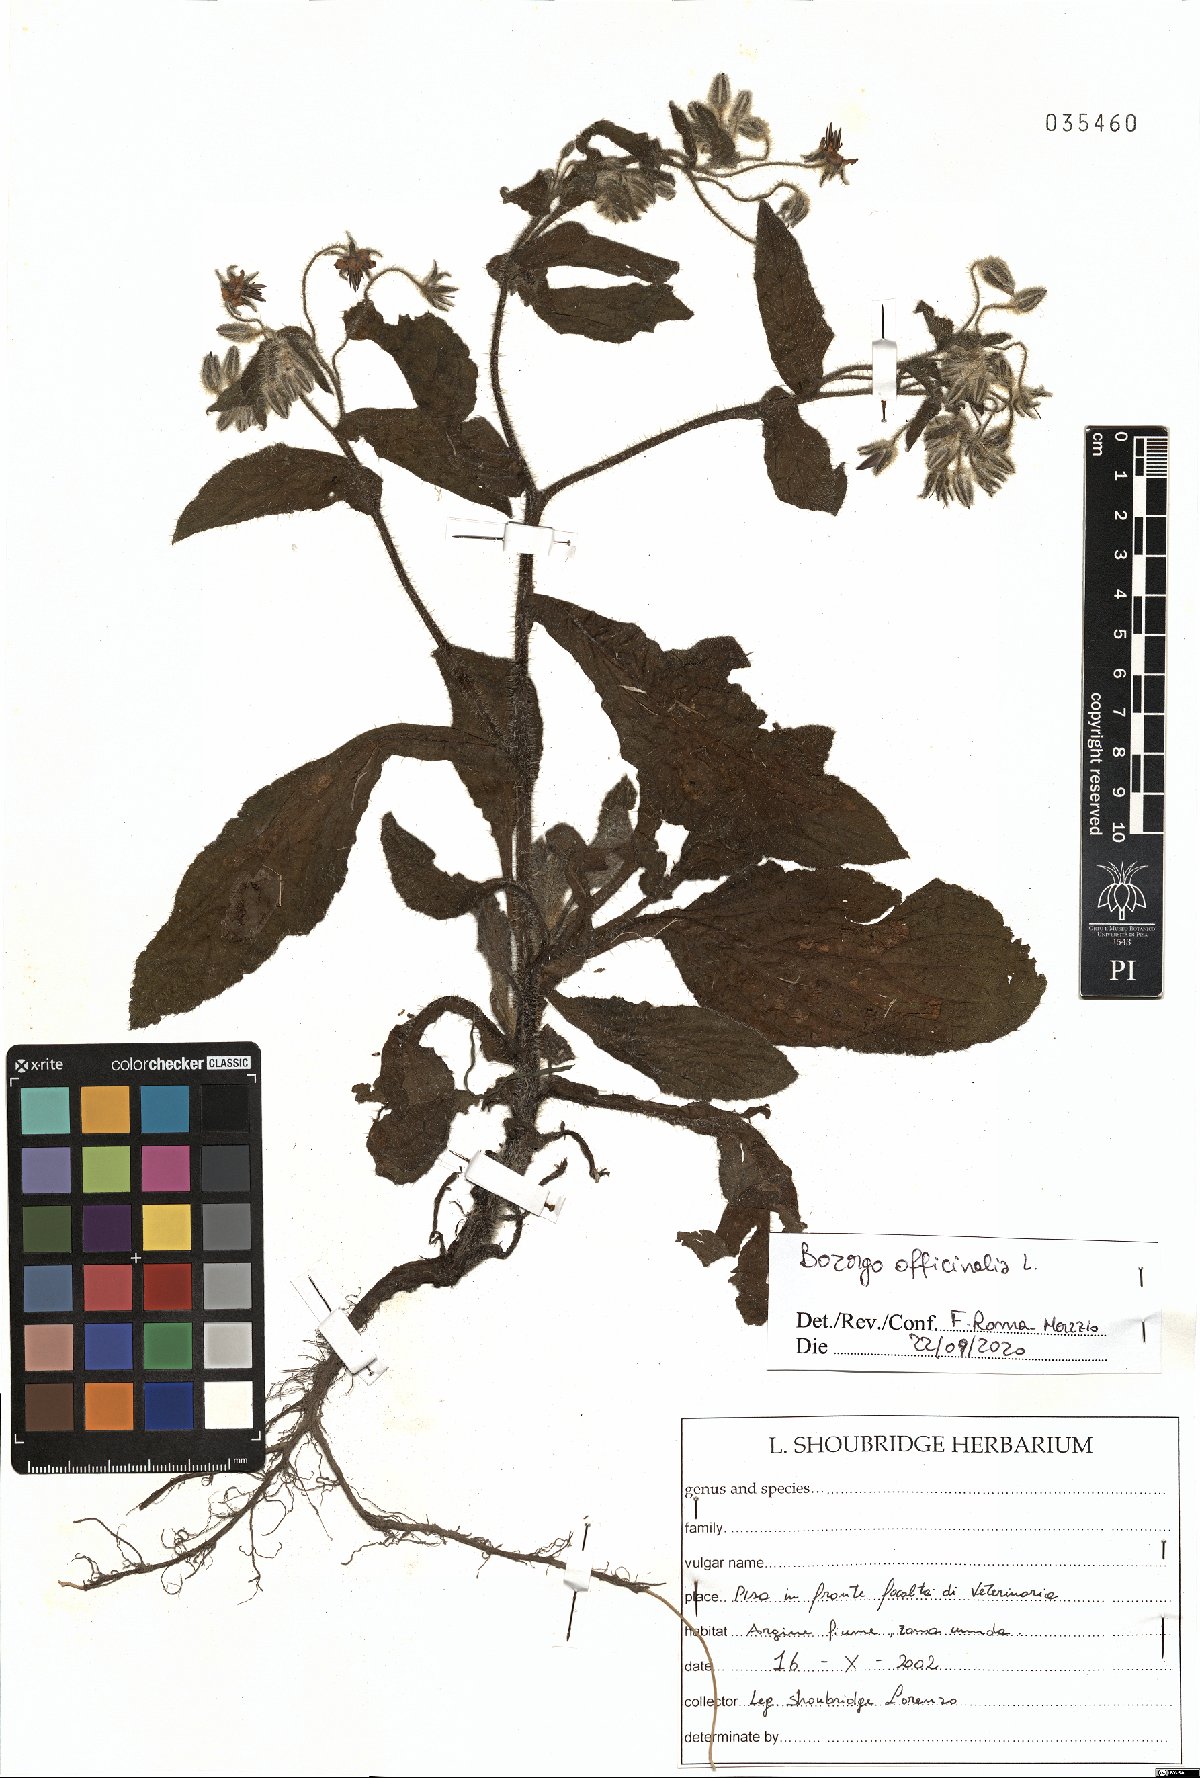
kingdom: Plantae
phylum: Tracheophyta
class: Magnoliopsida
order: Boraginales
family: Boraginaceae
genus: Borago
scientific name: Borago officinalis
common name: Borage
